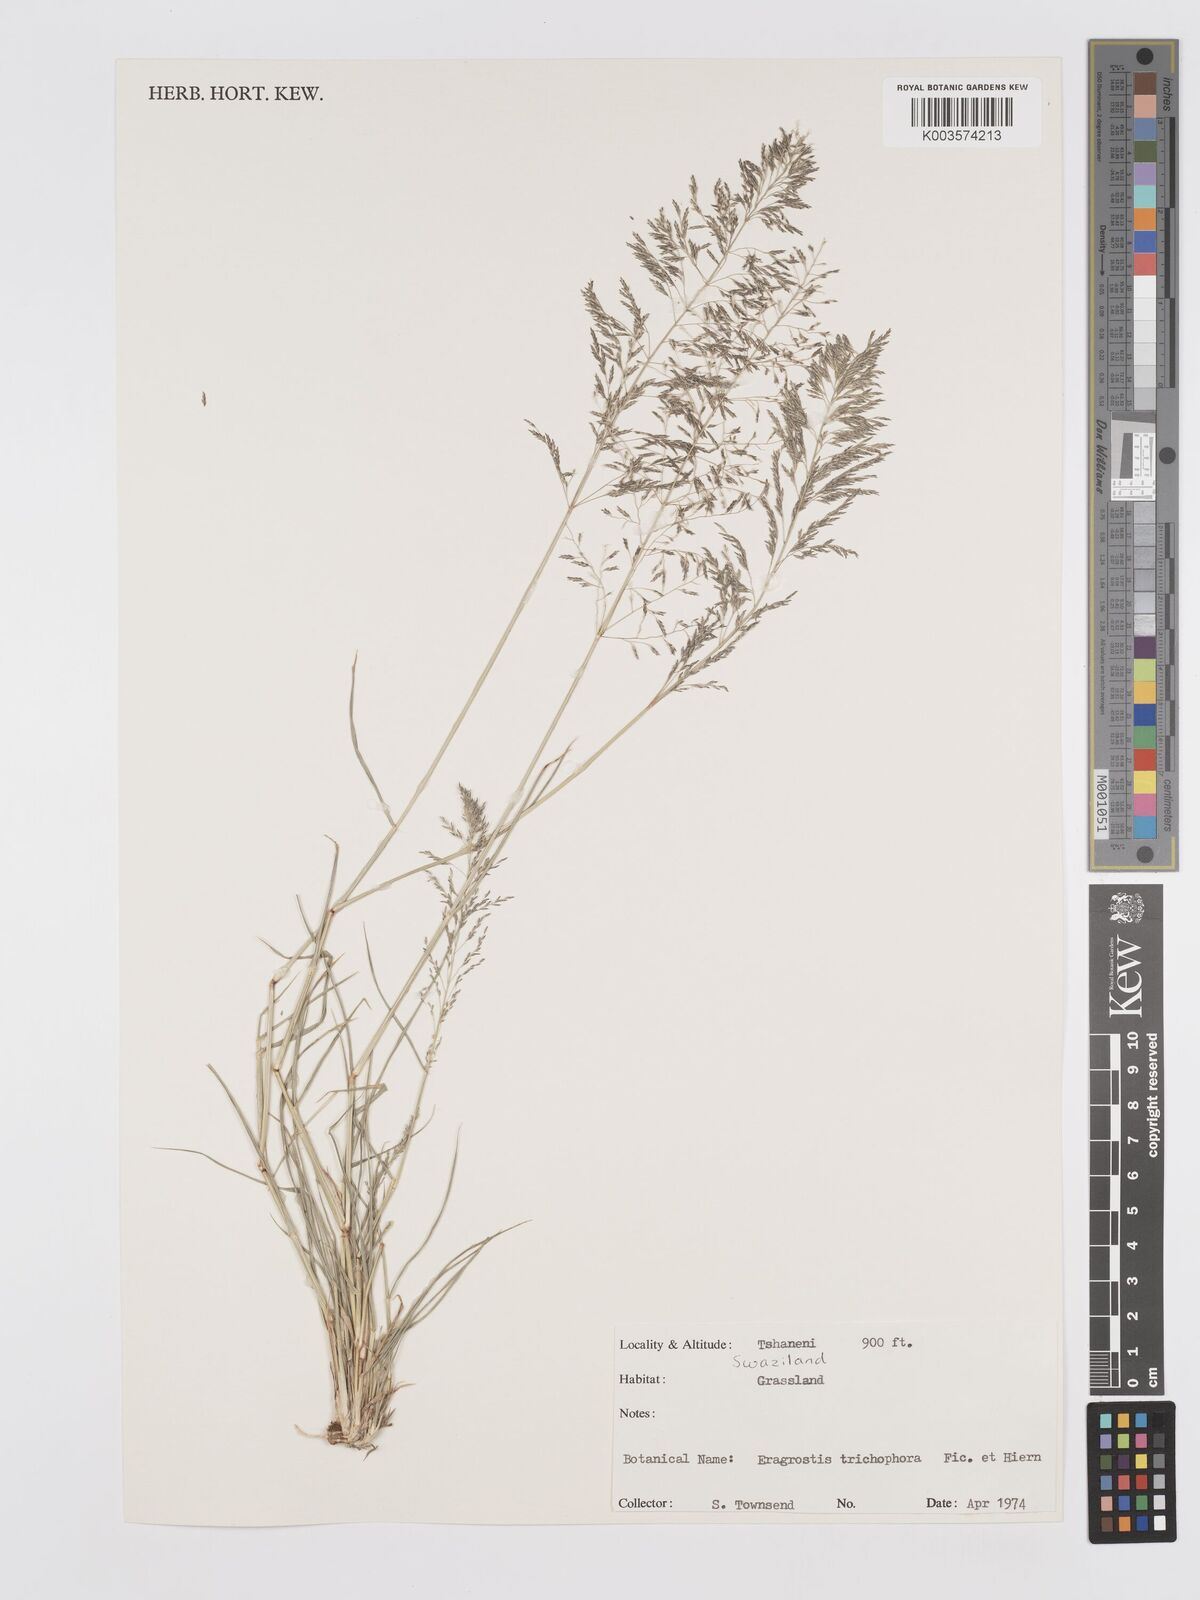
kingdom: Plantae
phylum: Tracheophyta
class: Liliopsida
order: Poales
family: Poaceae
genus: Eragrostis
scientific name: Eragrostis cylindriflora
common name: Cylinderflower lovegrass
